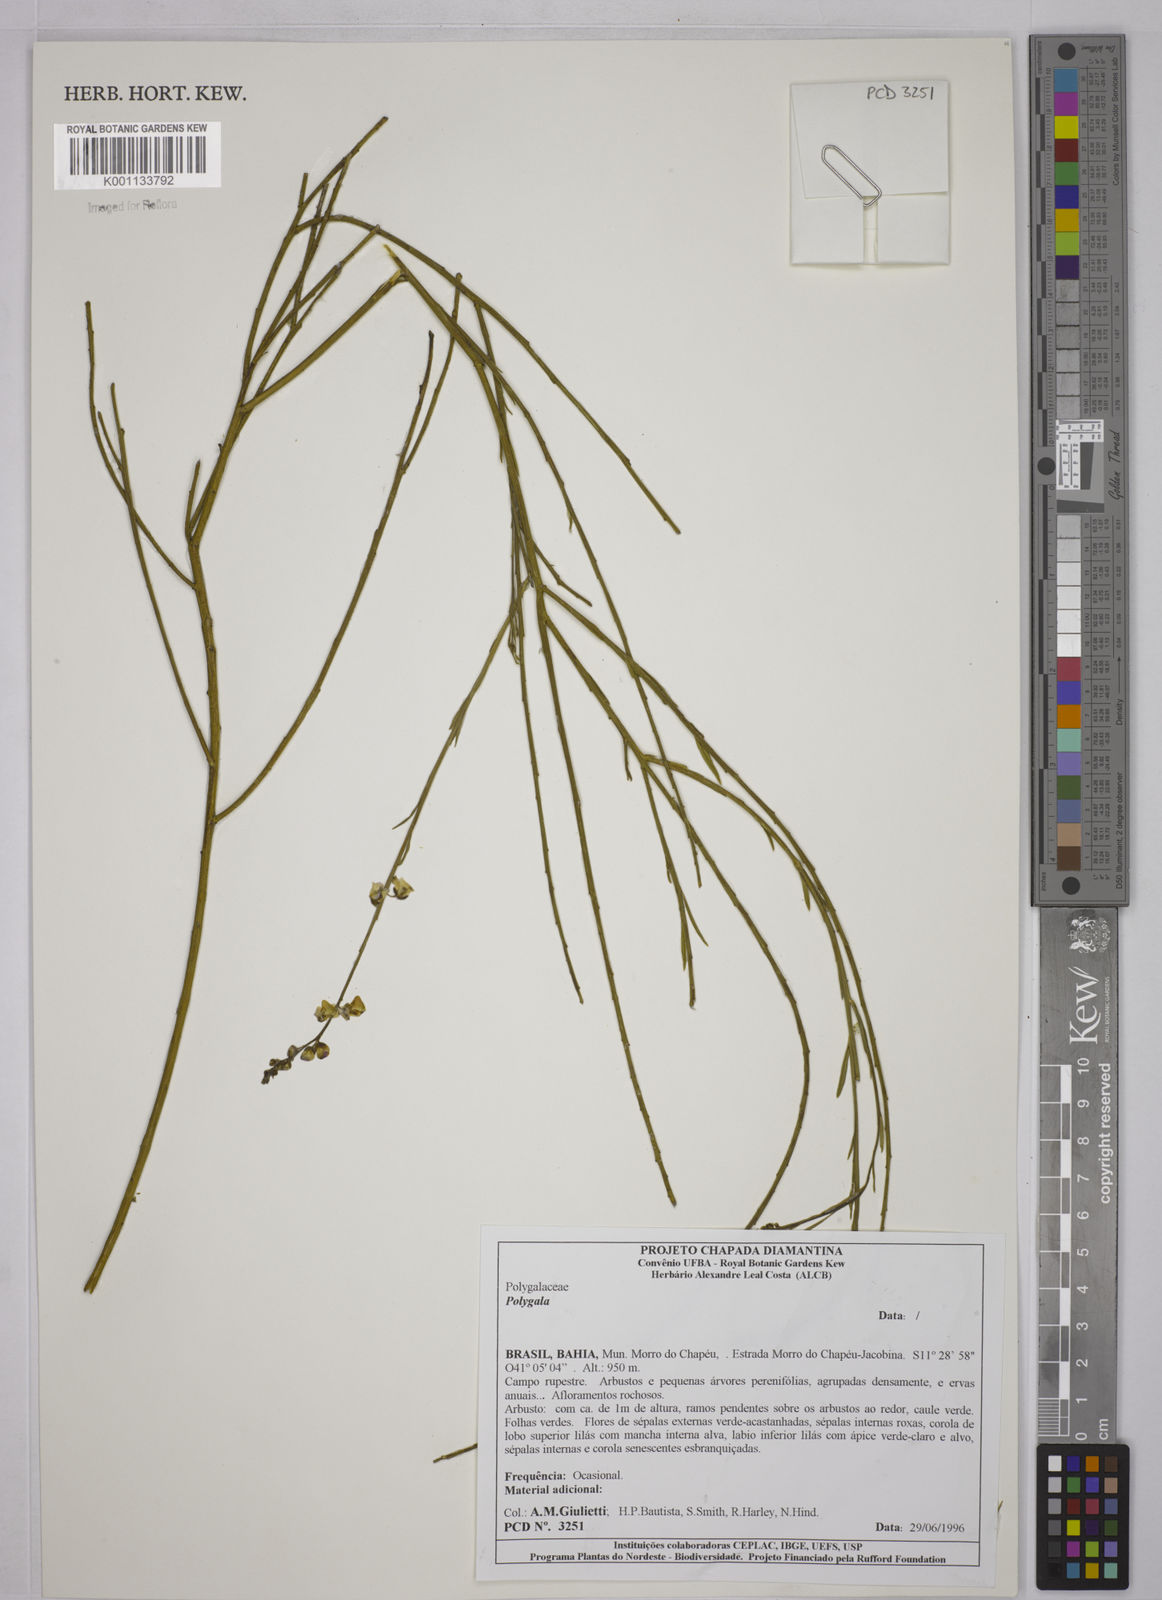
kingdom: Plantae
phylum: Tracheophyta
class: Magnoliopsida
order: Fabales
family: Polygalaceae
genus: Polygala
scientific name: Polygala
